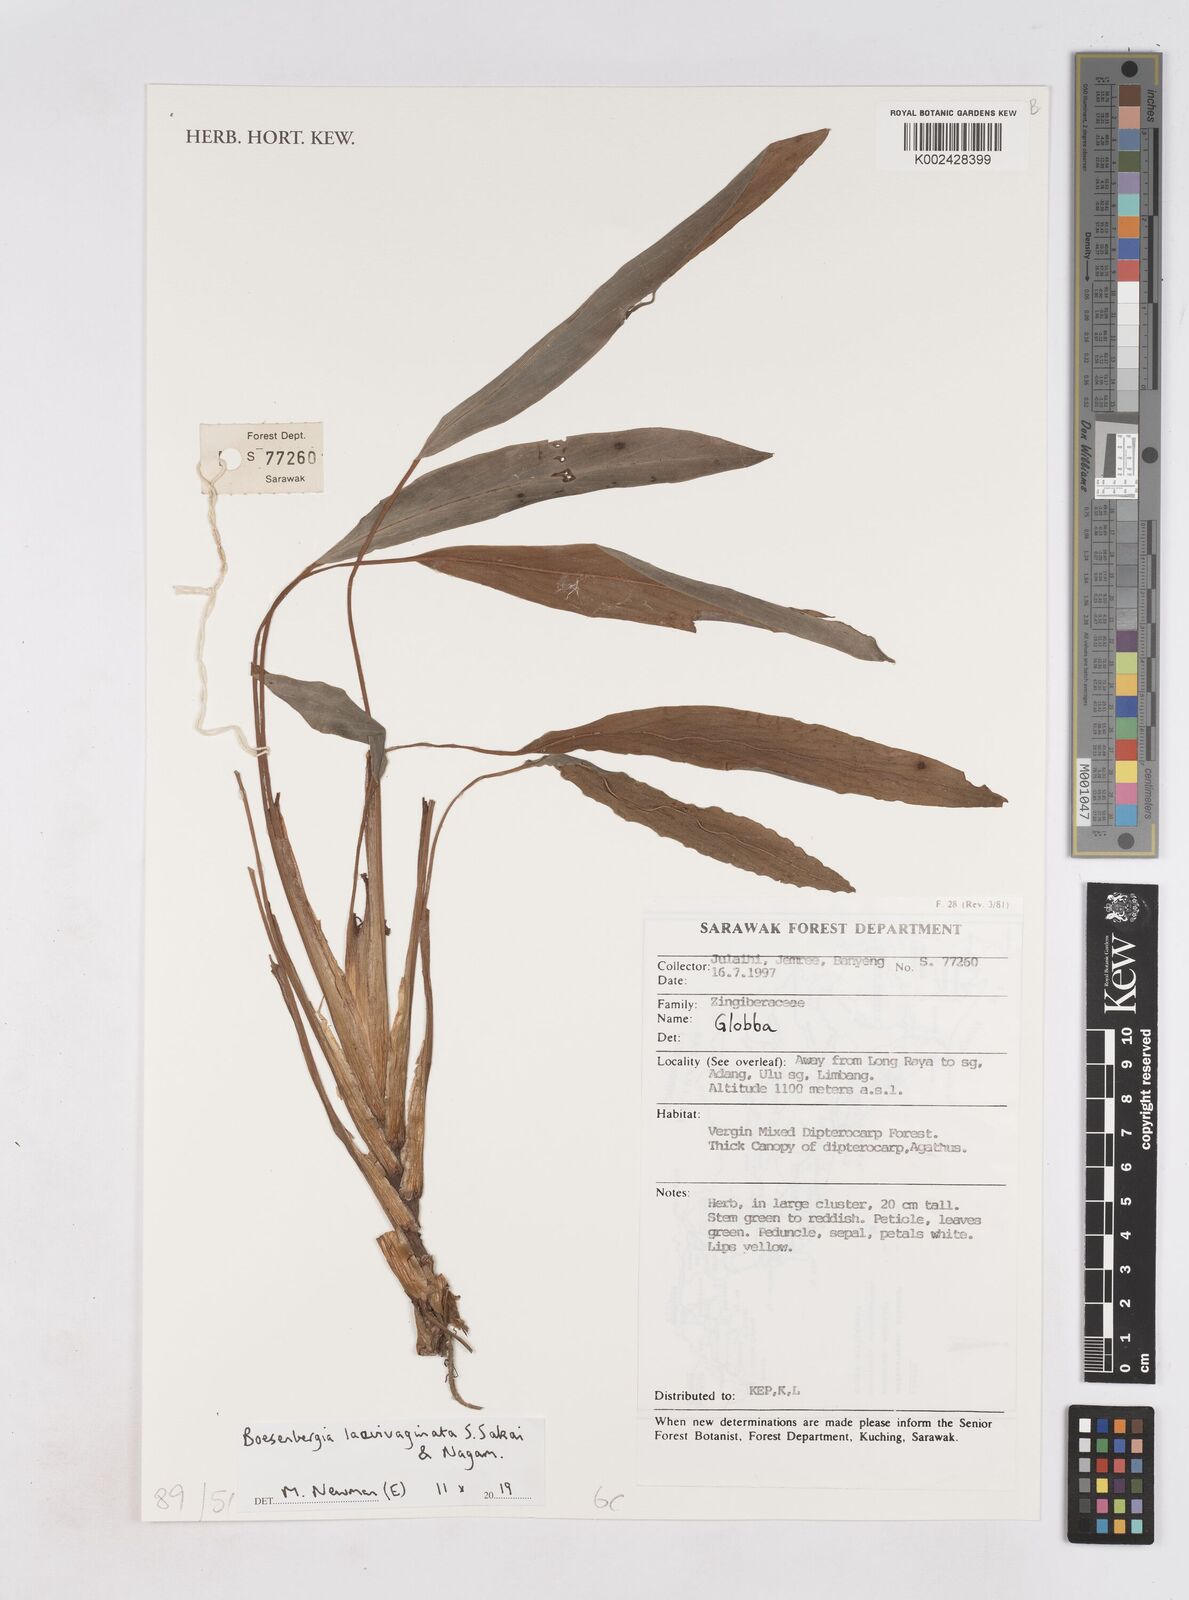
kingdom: Plantae
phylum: Tracheophyta
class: Liliopsida
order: Zingiberales
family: Zingiberaceae
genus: Boesenbergia
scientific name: Boesenbergia laevivaginata
